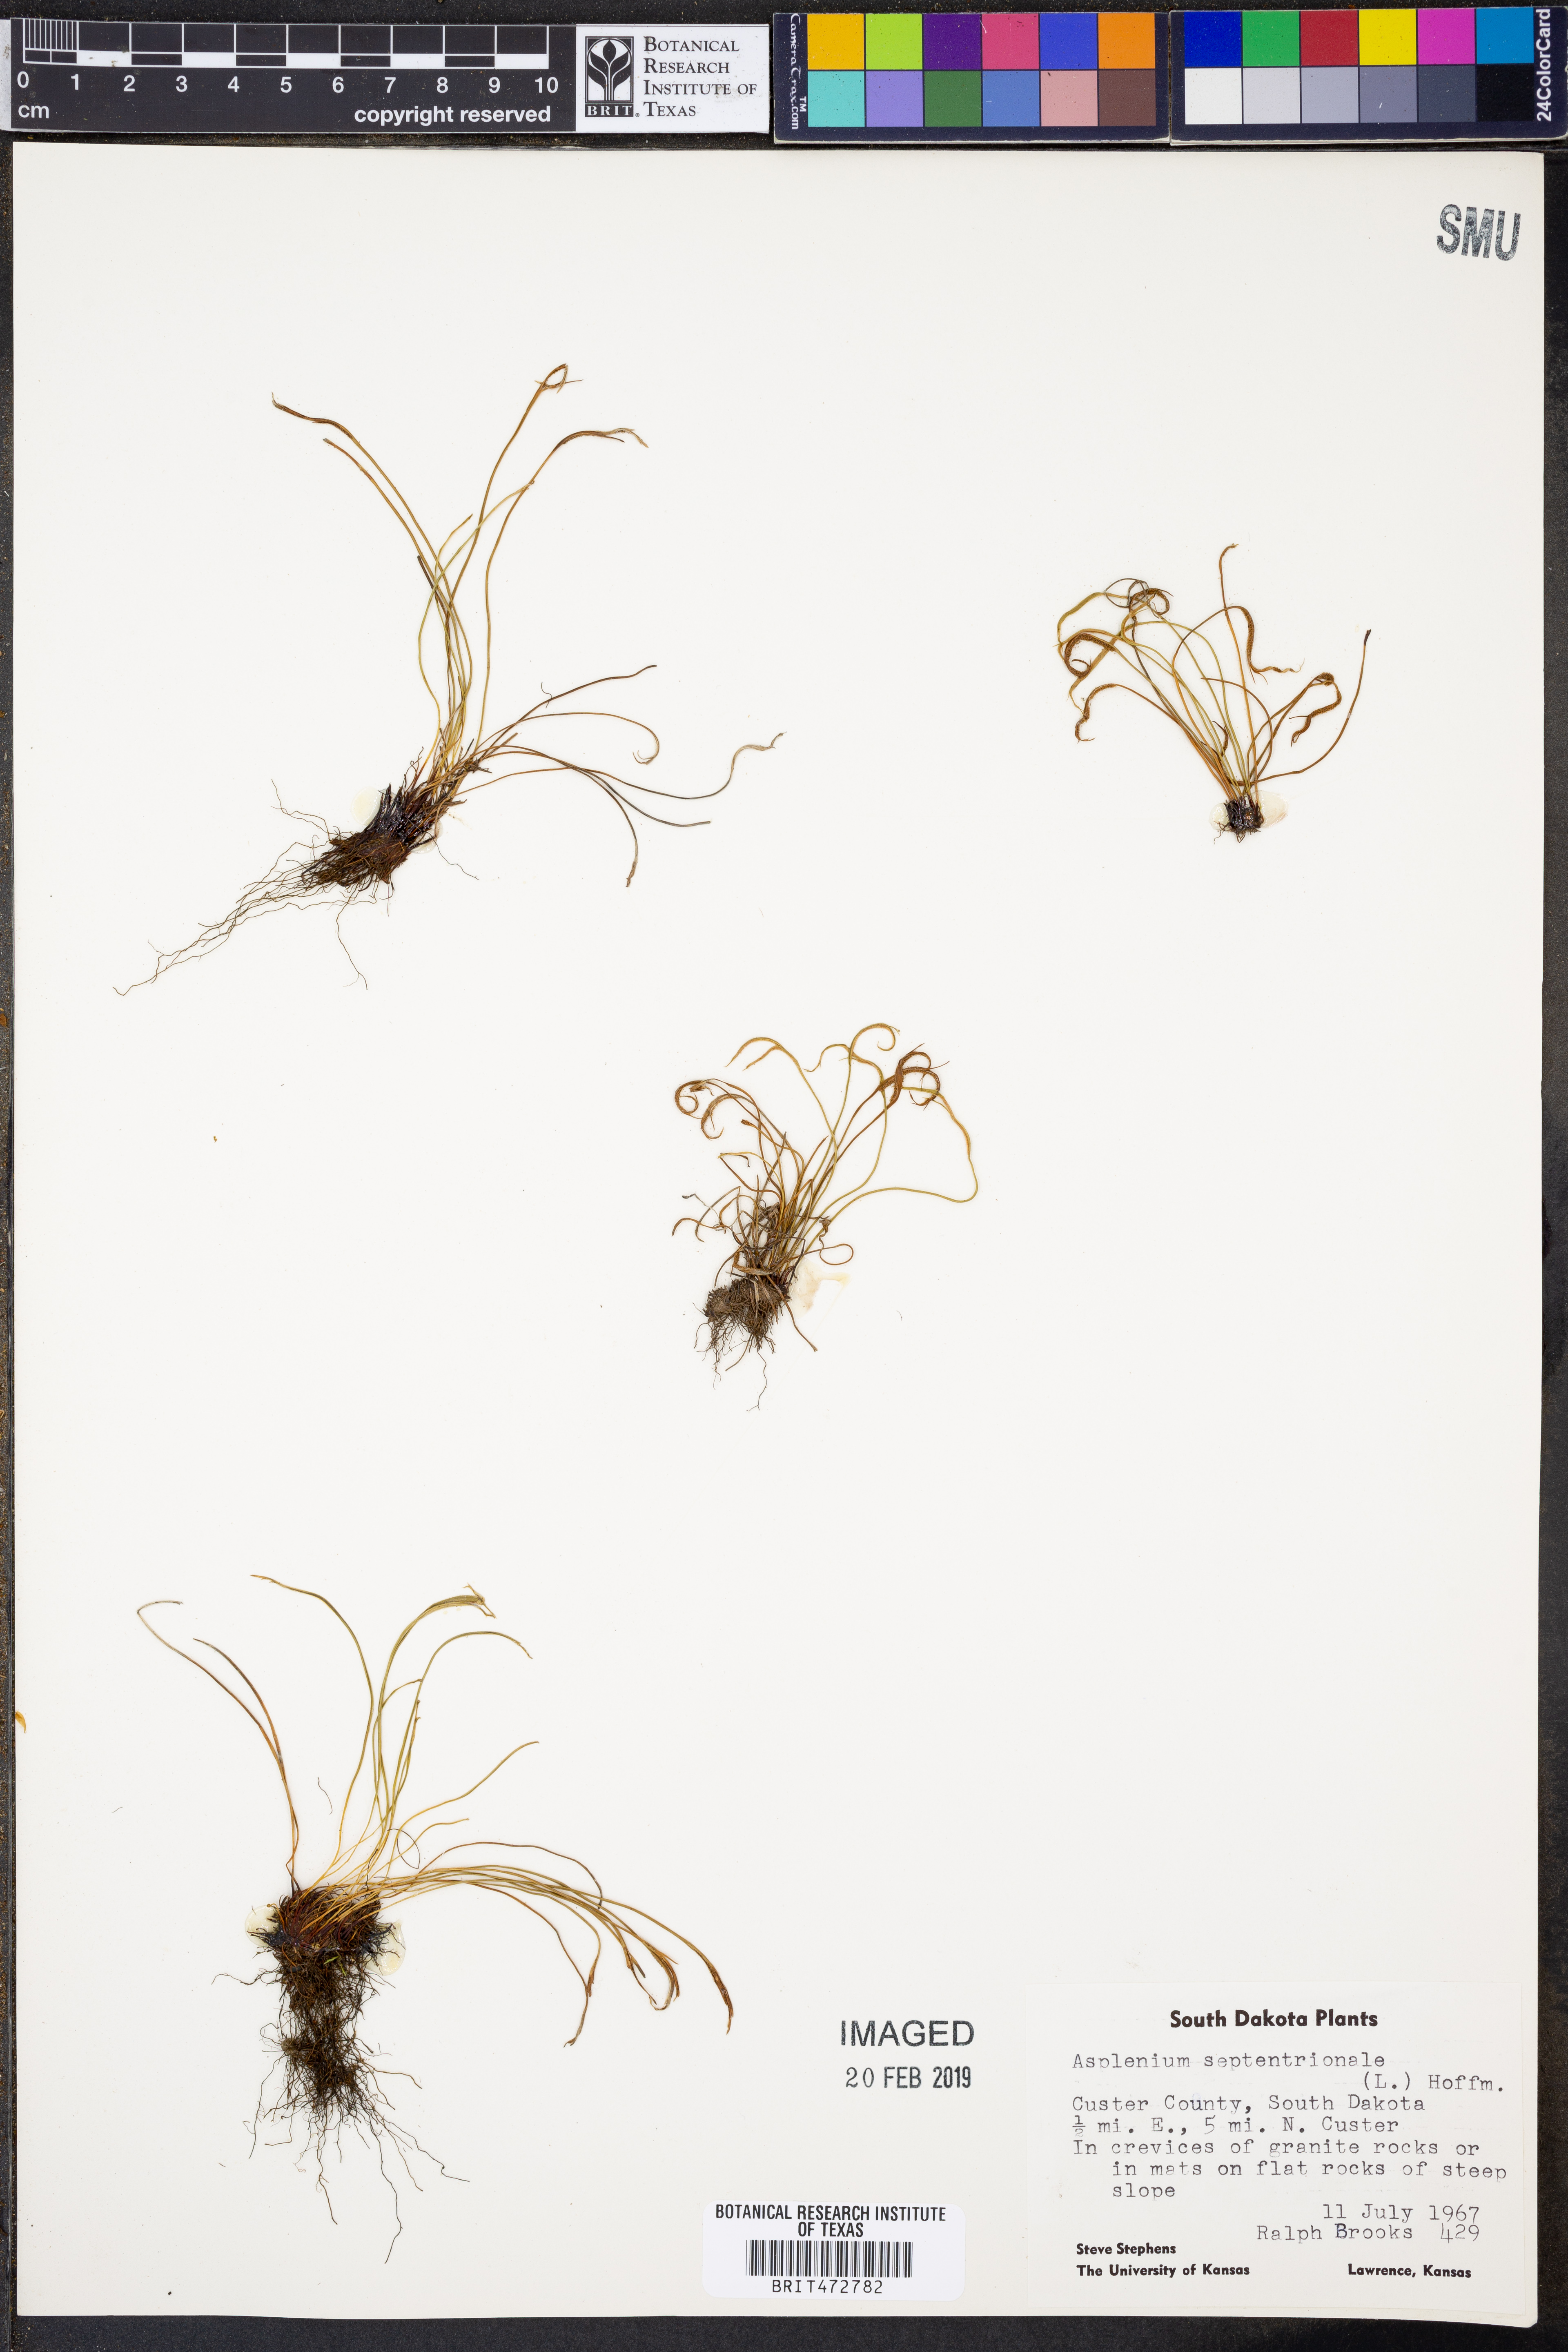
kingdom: Plantae
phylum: Tracheophyta
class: Polypodiopsida
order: Polypodiales
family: Aspleniaceae
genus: Asplenium
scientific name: Asplenium septentrionale
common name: Forked spleenwort
